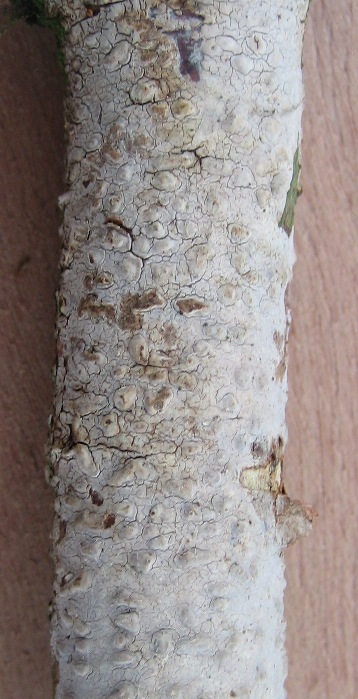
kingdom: Fungi
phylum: Basidiomycota
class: Agaricomycetes
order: Russulales
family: Peniophoraceae
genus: Peniophora
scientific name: Peniophora cinerea
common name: grå voksskind
